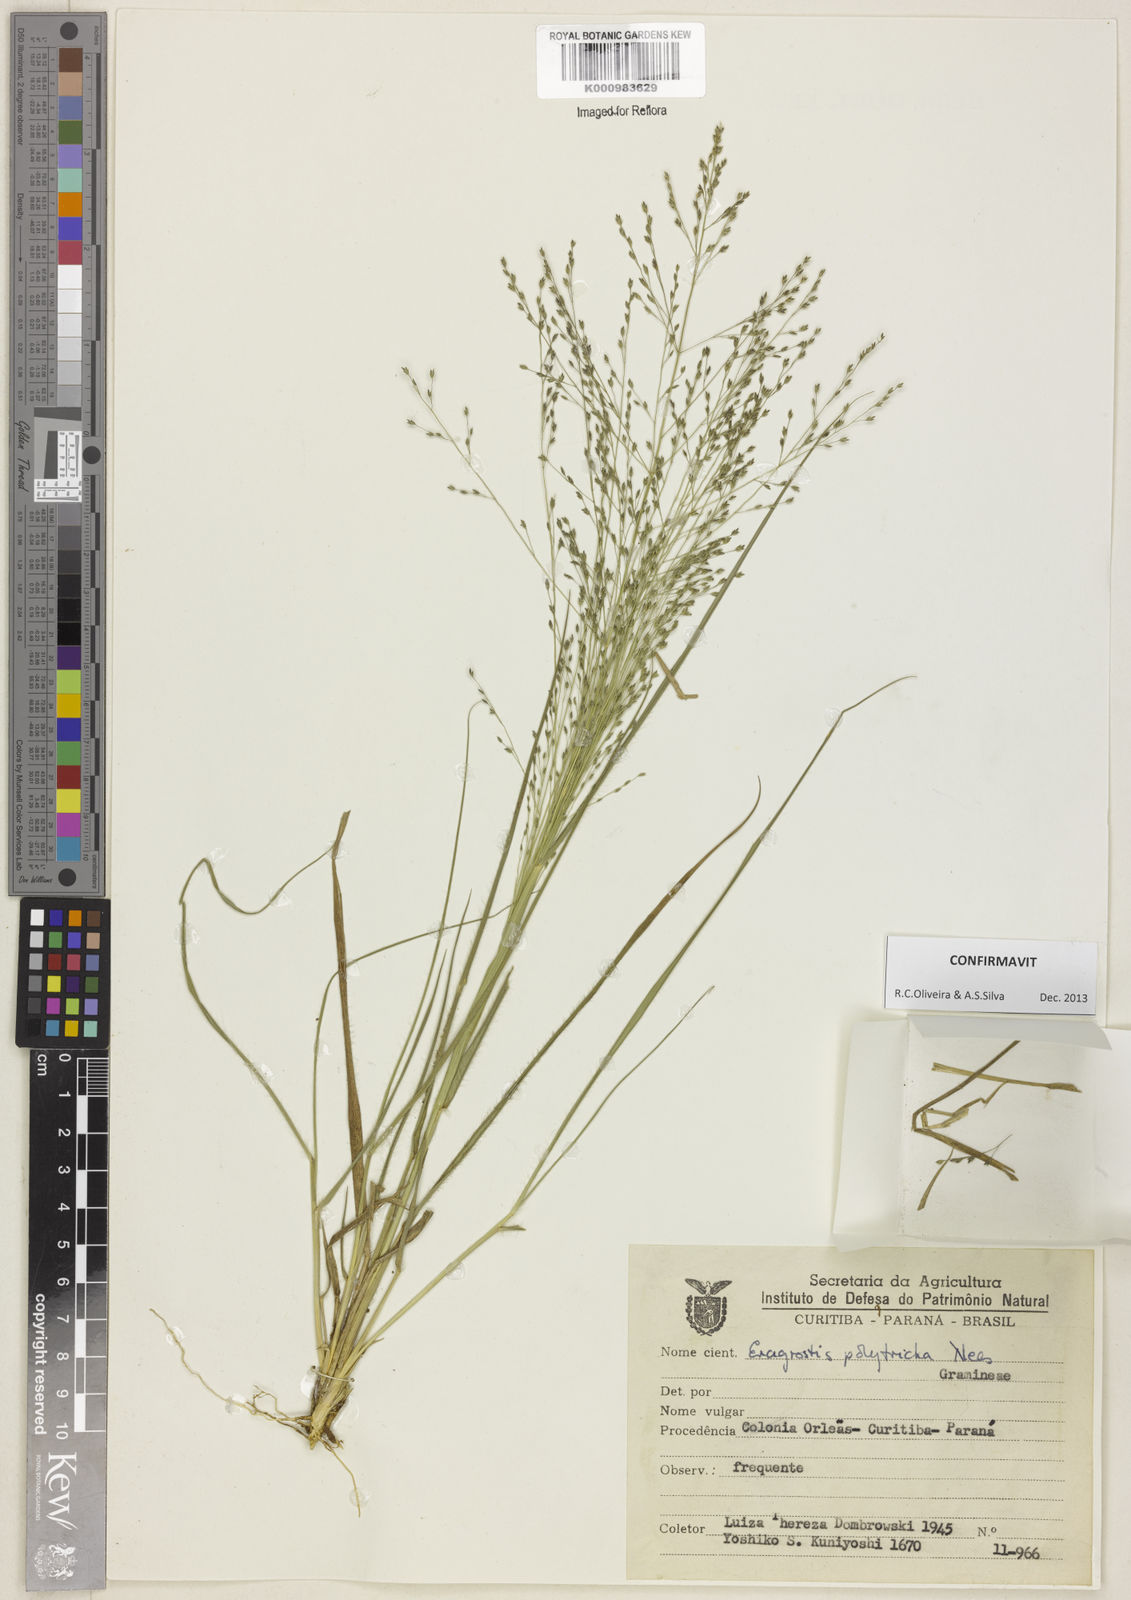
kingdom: Plantae
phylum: Tracheophyta
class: Liliopsida
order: Poales
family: Poaceae
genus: Eragrostis
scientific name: Eragrostis polytricha
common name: Hairy-sheath love grass
